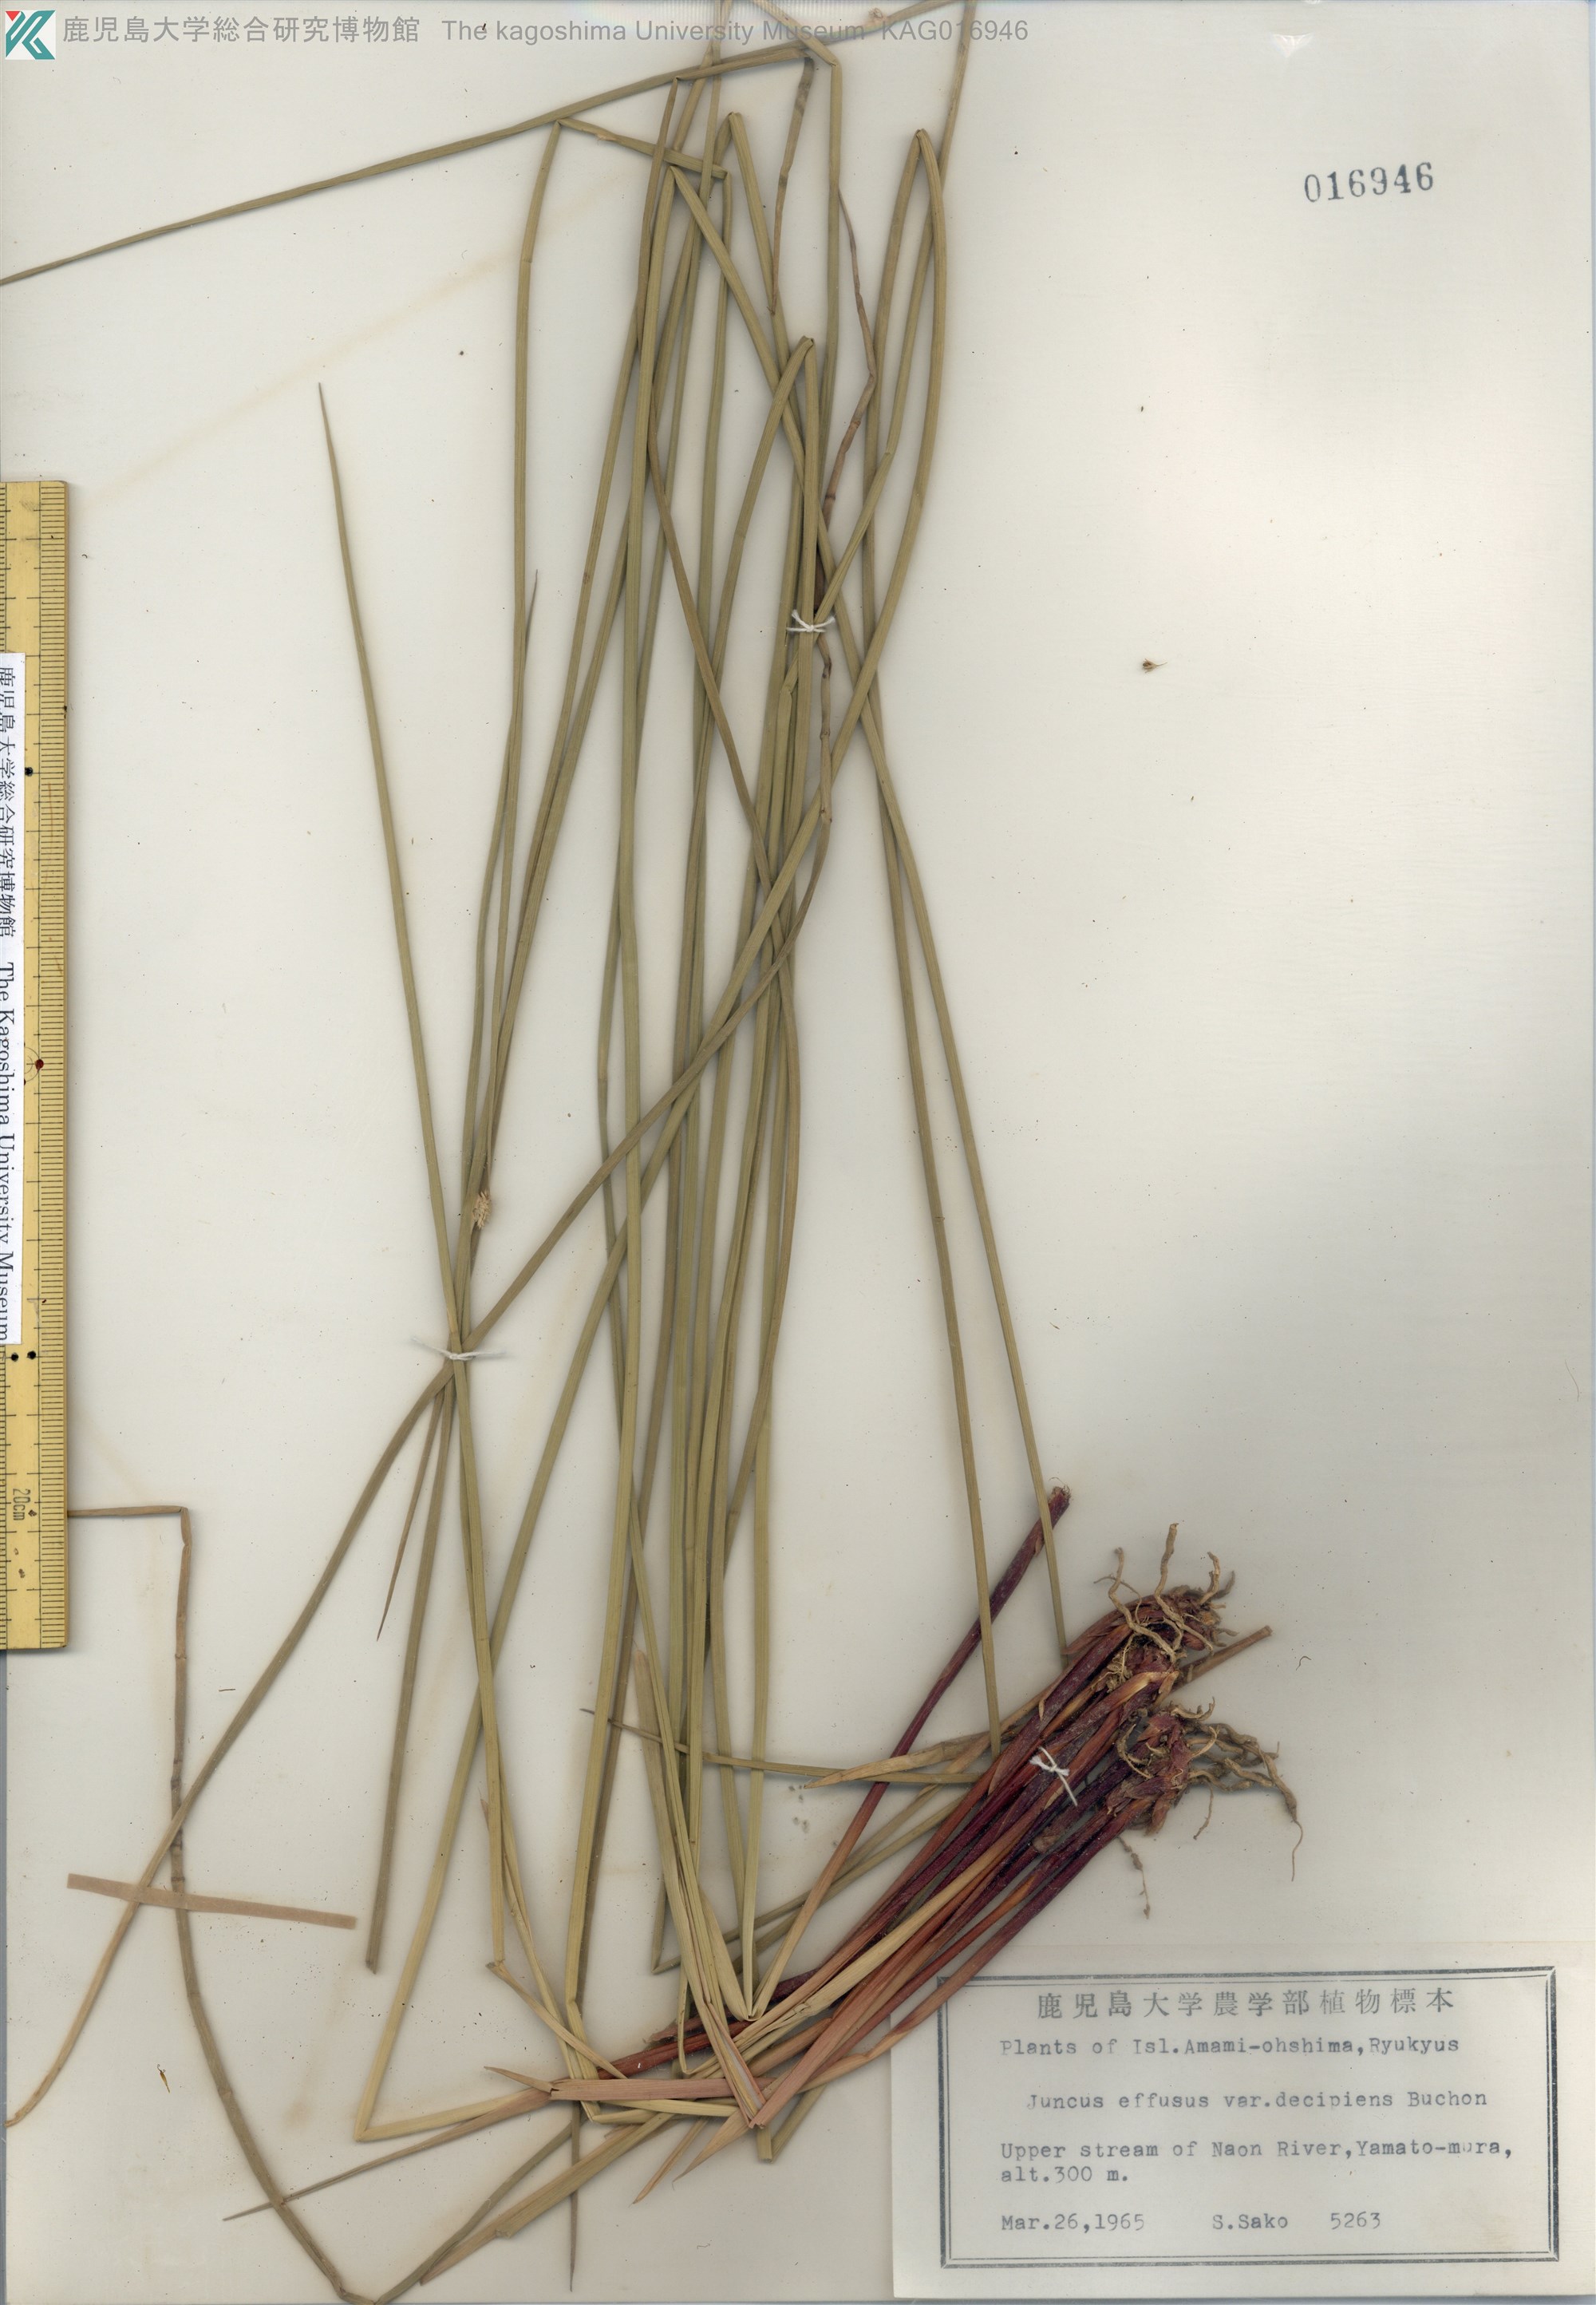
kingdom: Plantae
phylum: Tracheophyta
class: Liliopsida
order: Poales
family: Juncaceae
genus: Juncus
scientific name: Juncus decipiens
